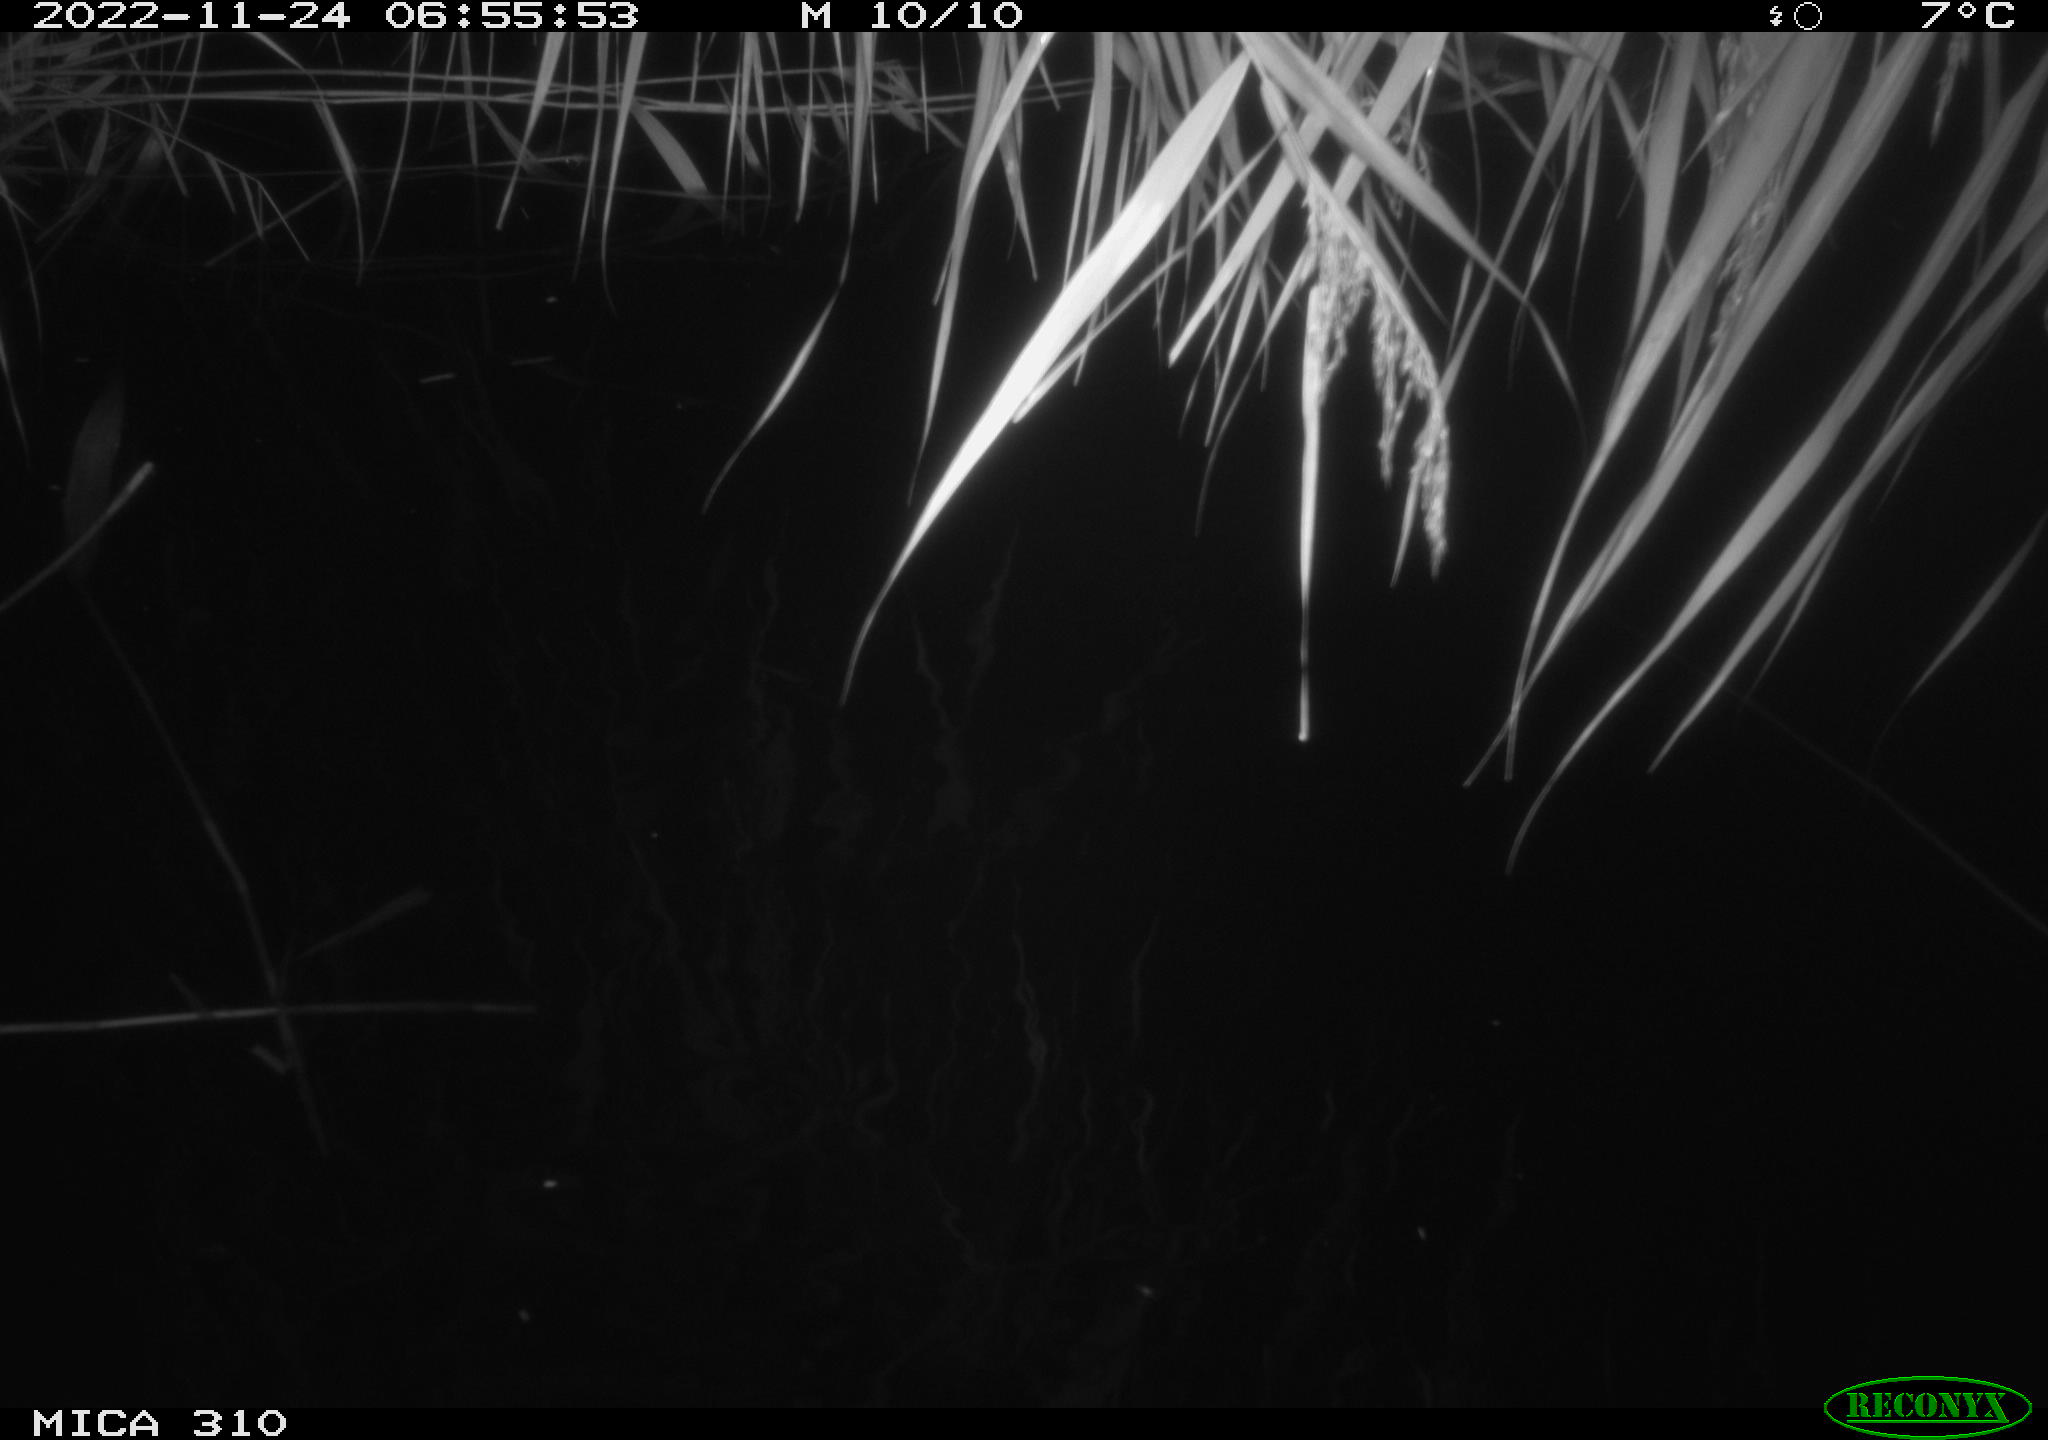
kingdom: Animalia
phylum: Chordata
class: Aves
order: Anseriformes
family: Anatidae
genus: Anas
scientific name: Anas
